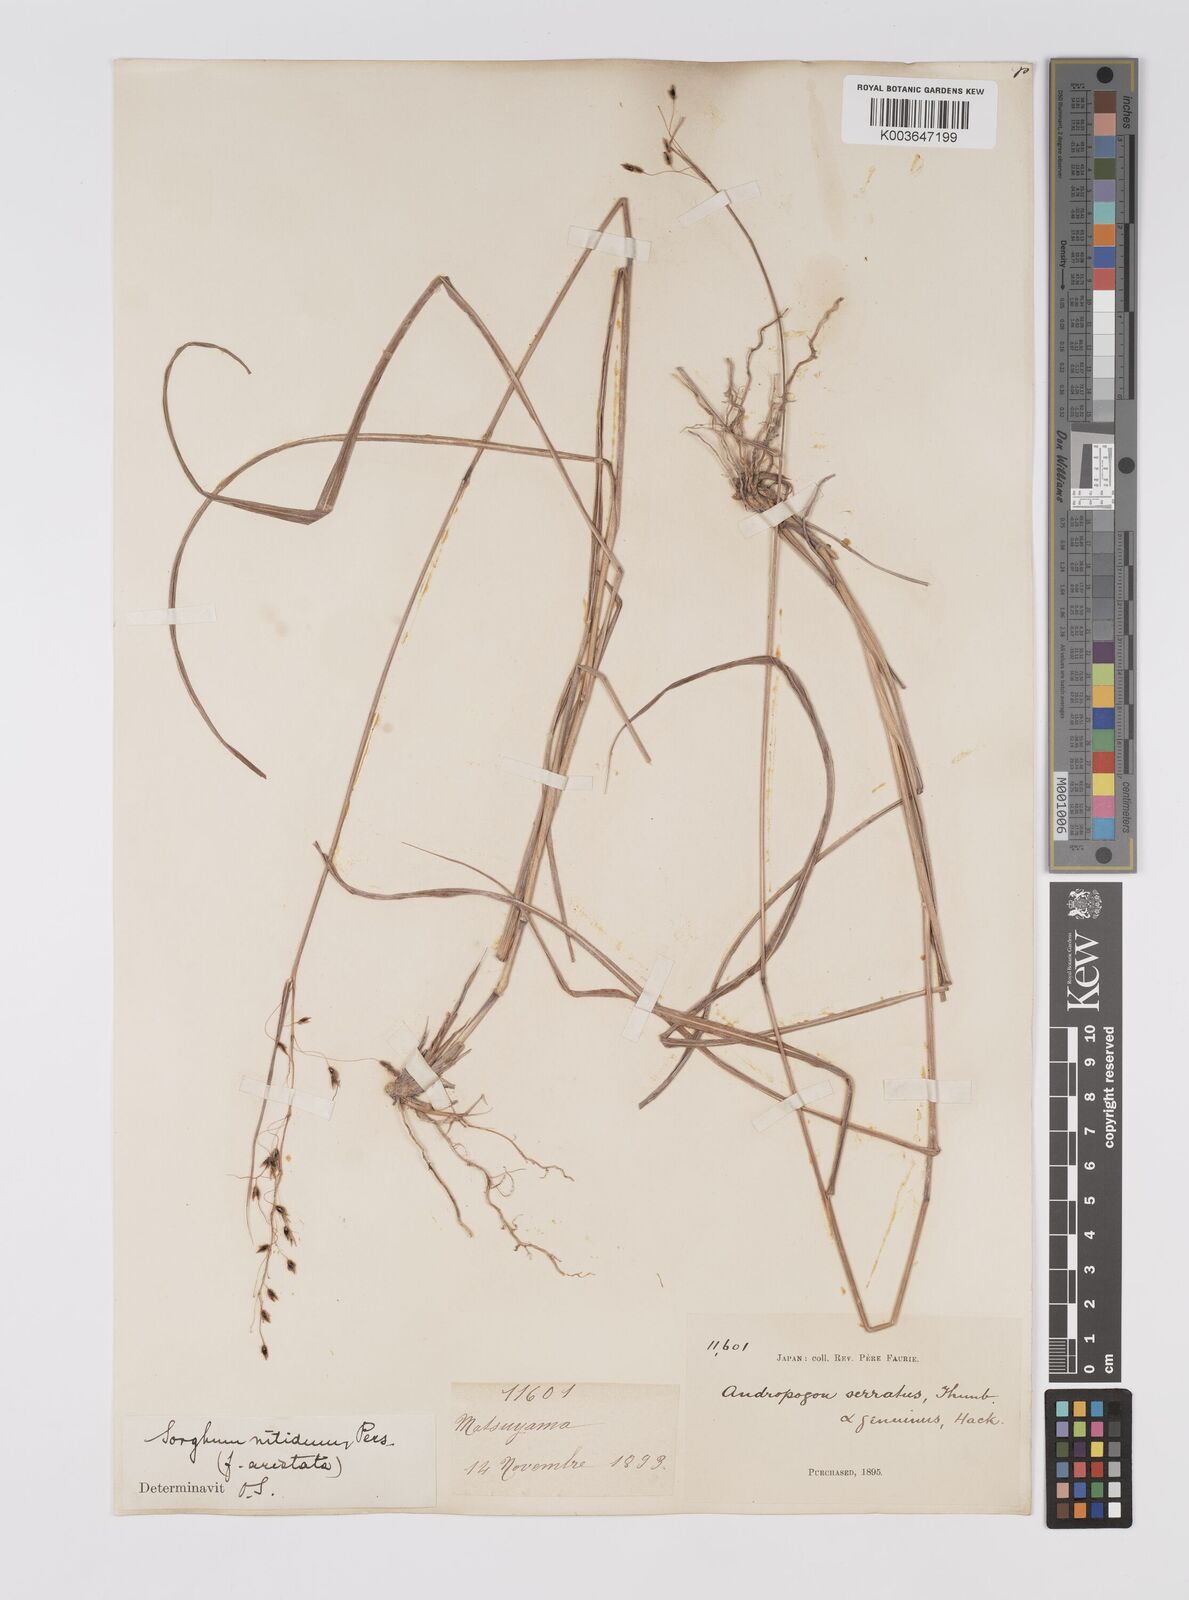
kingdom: Plantae
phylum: Tracheophyta
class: Liliopsida
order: Poales
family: Poaceae
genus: Sorghum
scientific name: Sorghum nitidum
